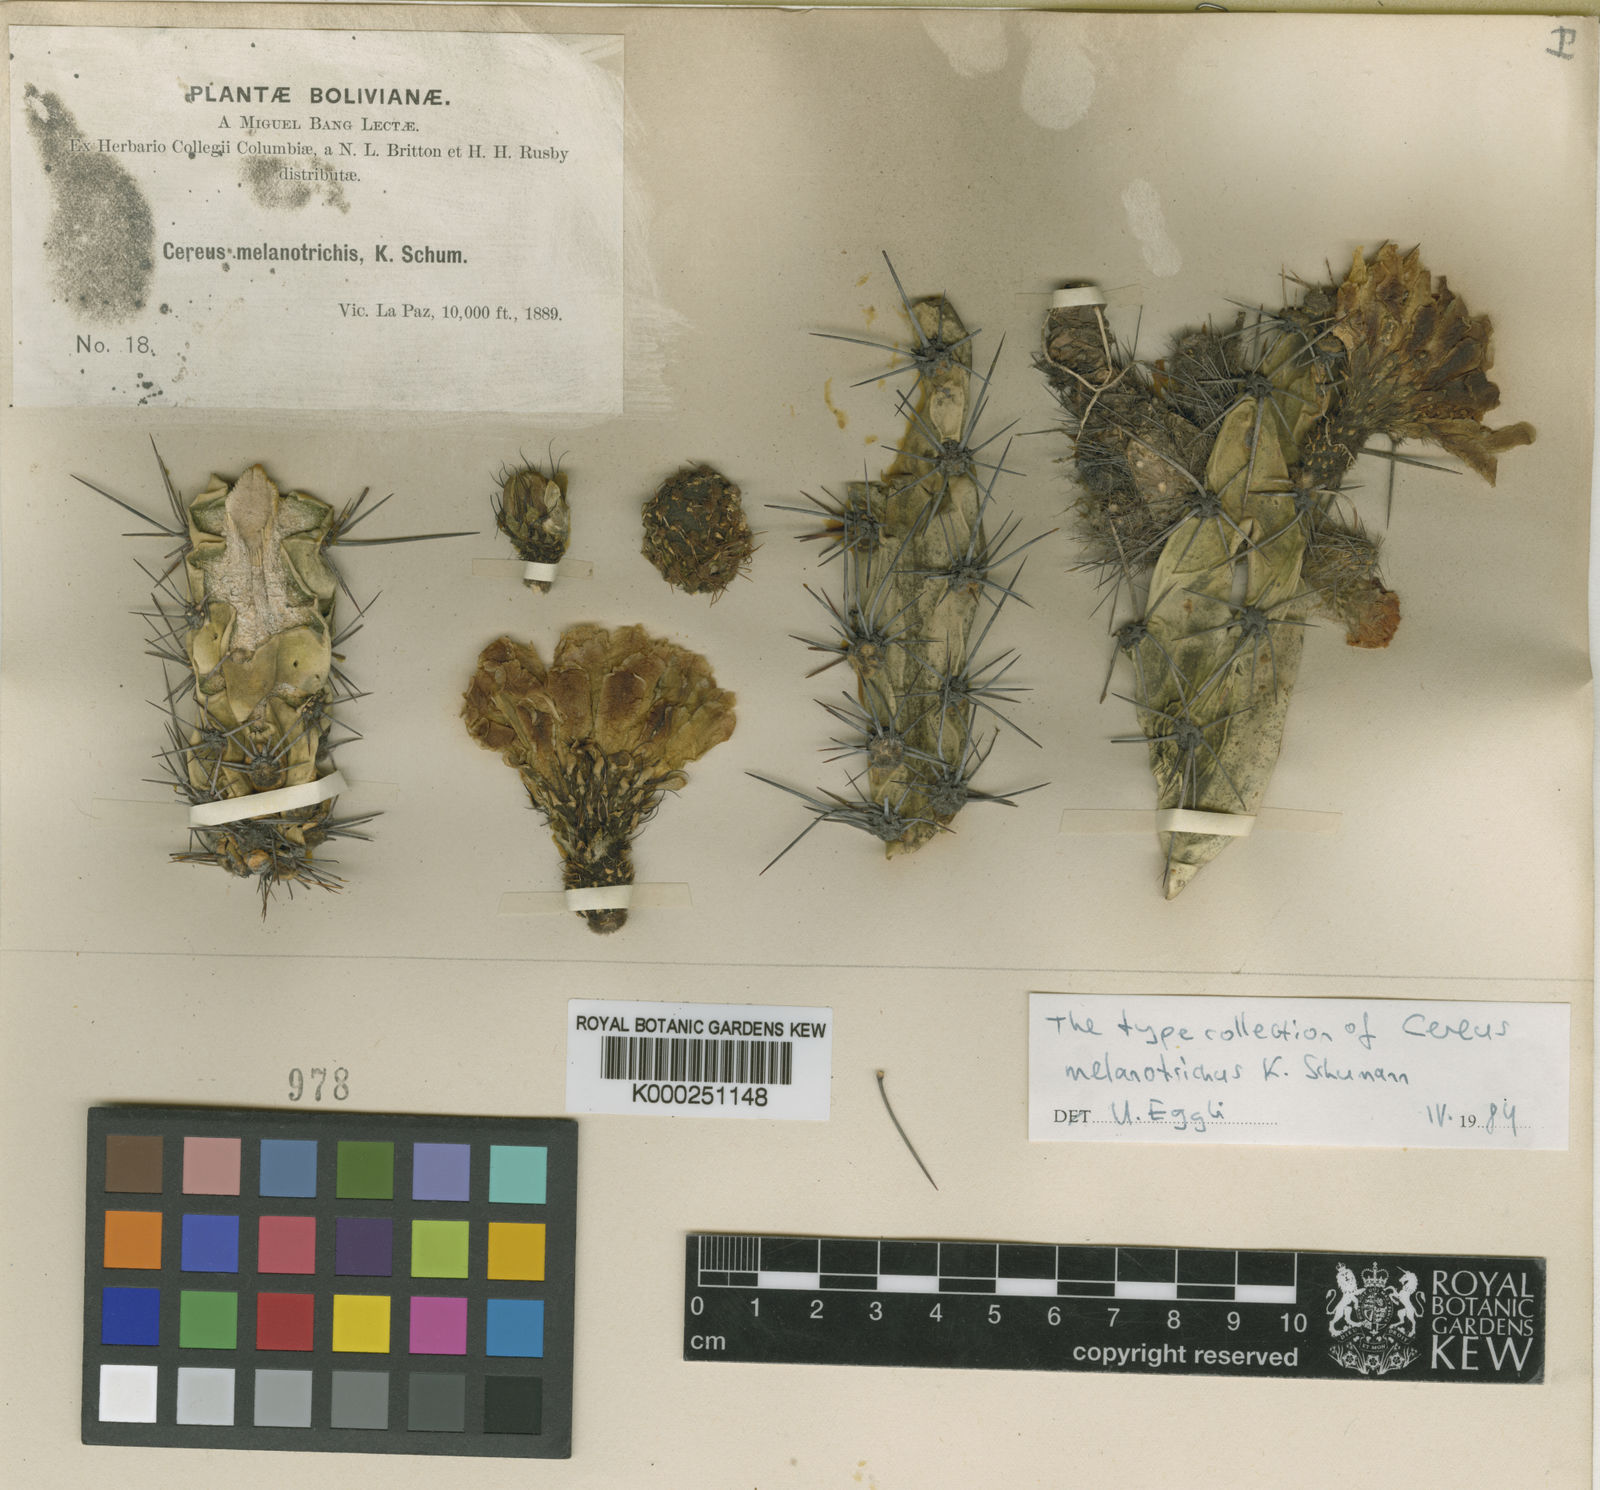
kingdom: Plantae
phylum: Tracheophyta
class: Magnoliopsida
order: Caryophyllales
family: Cactaceae
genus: Corryocactus
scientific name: Corryocactus melanotrichus
